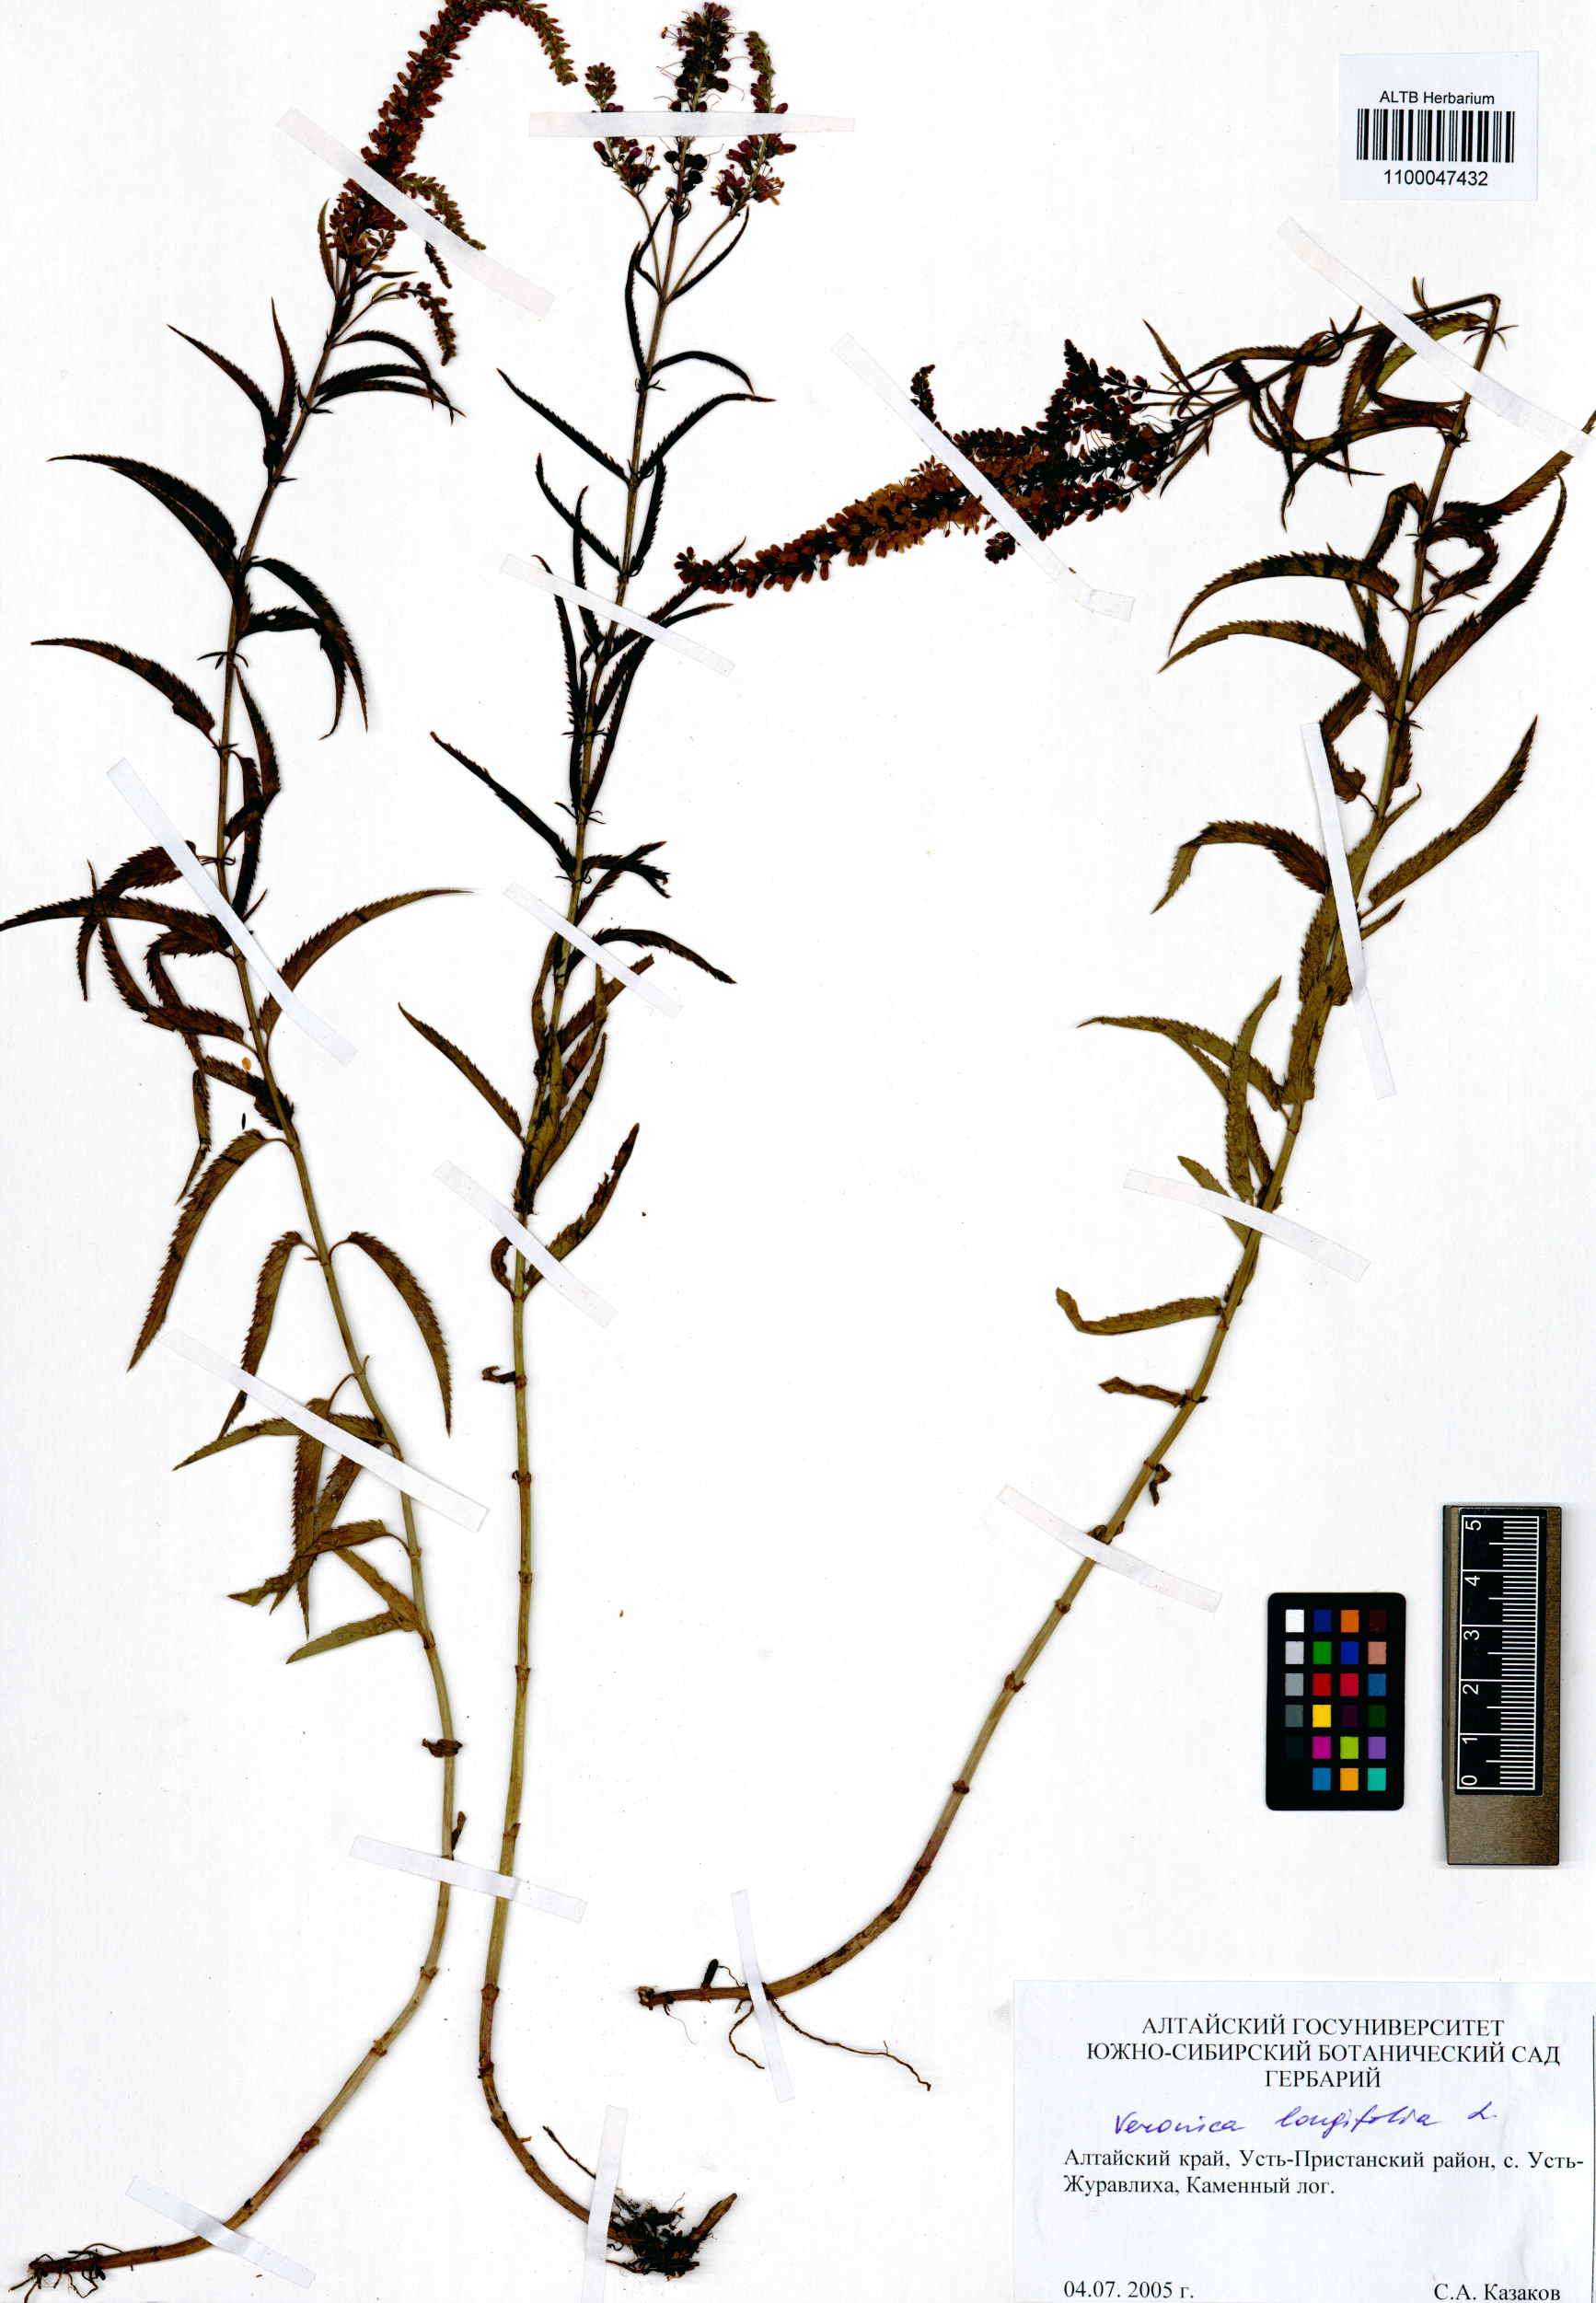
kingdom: Plantae
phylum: Tracheophyta
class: Magnoliopsida
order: Lamiales
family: Plantaginaceae
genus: Veronica
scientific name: Veronica longifolia
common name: Garden speedwell
